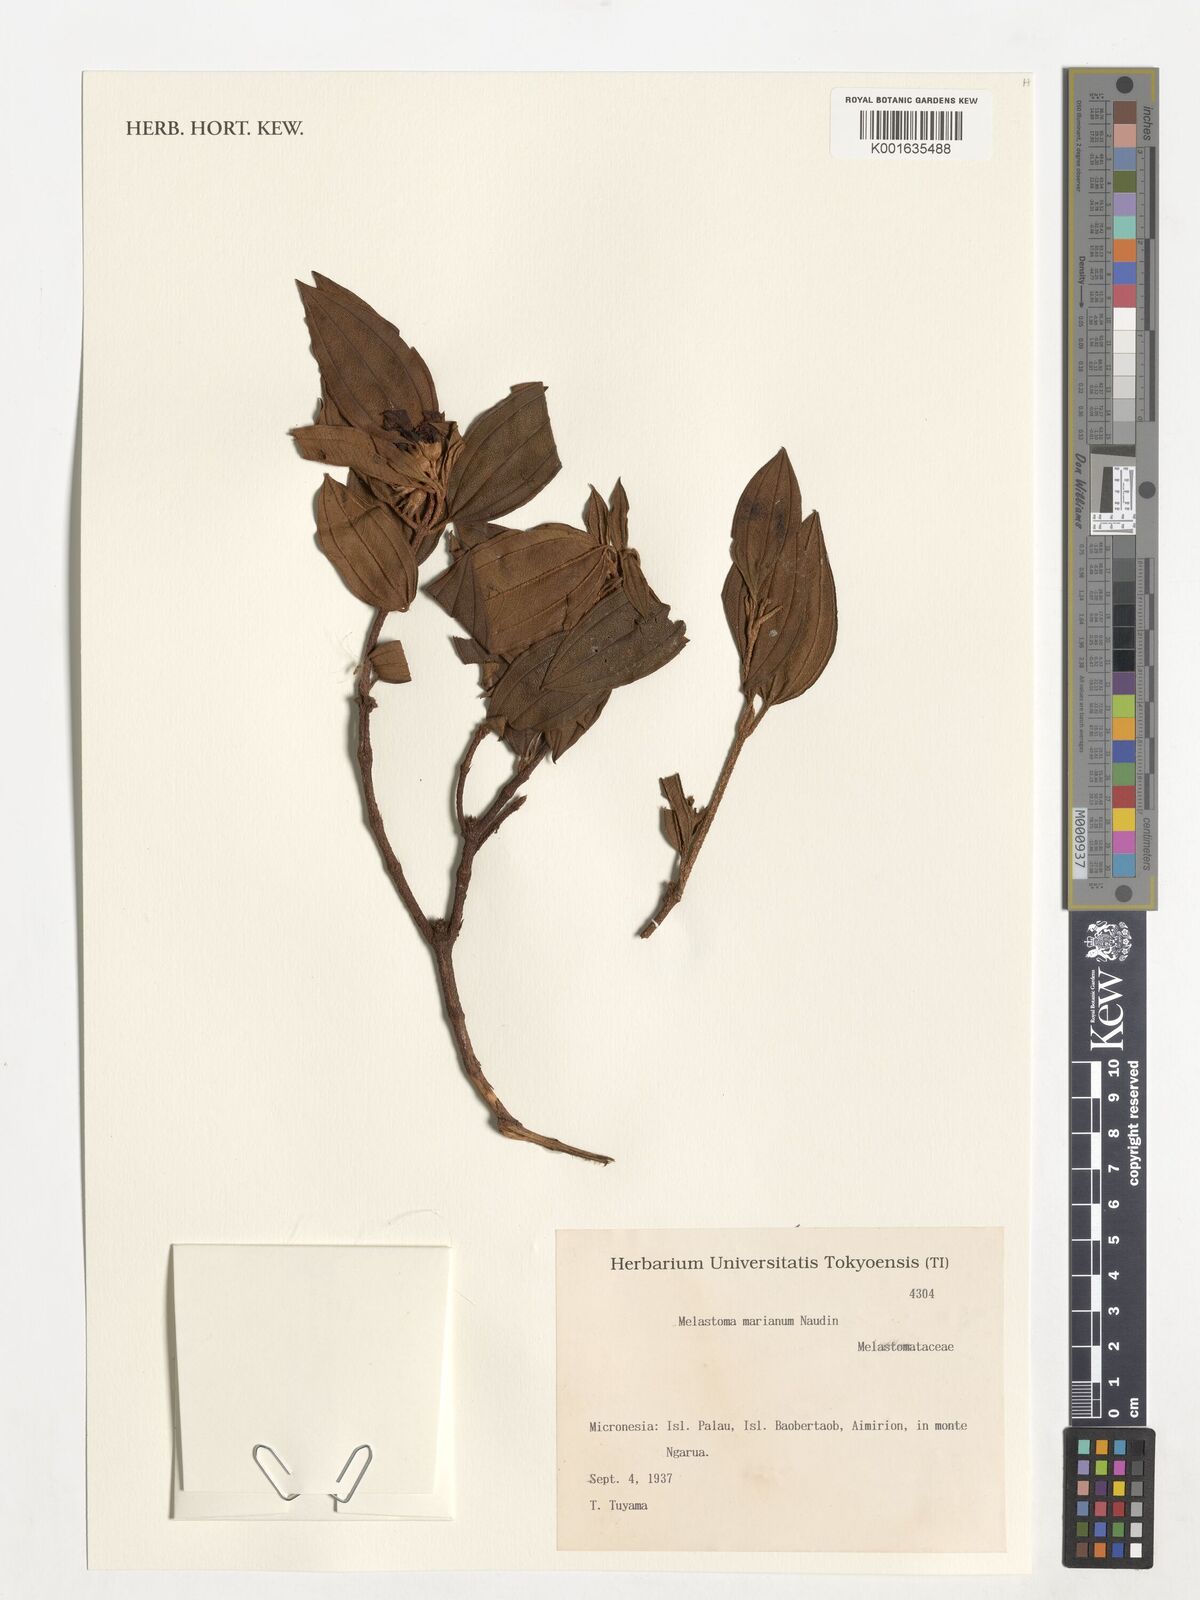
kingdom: Plantae
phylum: Tracheophyta
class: Magnoliopsida
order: Myrtales
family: Melastomataceae
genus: Melastoma
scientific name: Melastoma malabathricum
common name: Indian-rhododendron
